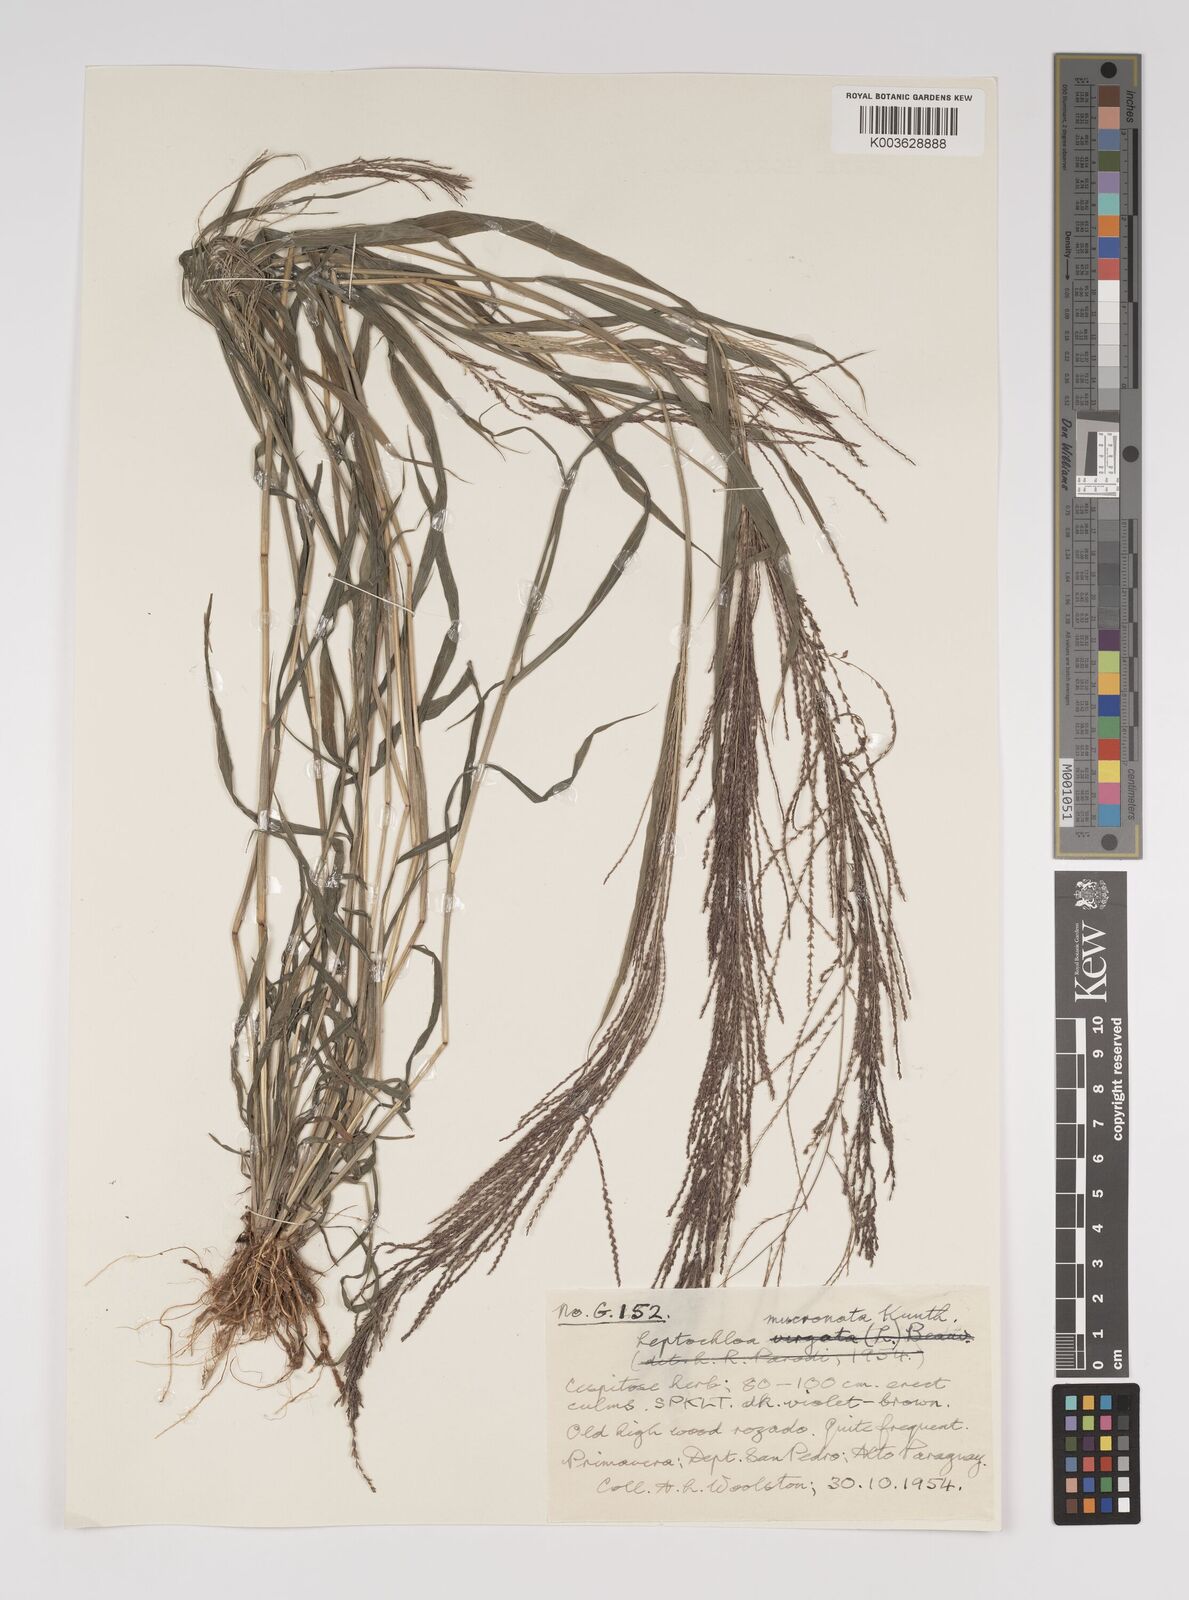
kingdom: Plantae
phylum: Tracheophyta
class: Liliopsida
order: Poales
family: Poaceae
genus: Leptochloa
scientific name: Leptochloa panicea
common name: Mucronate sprangletop
